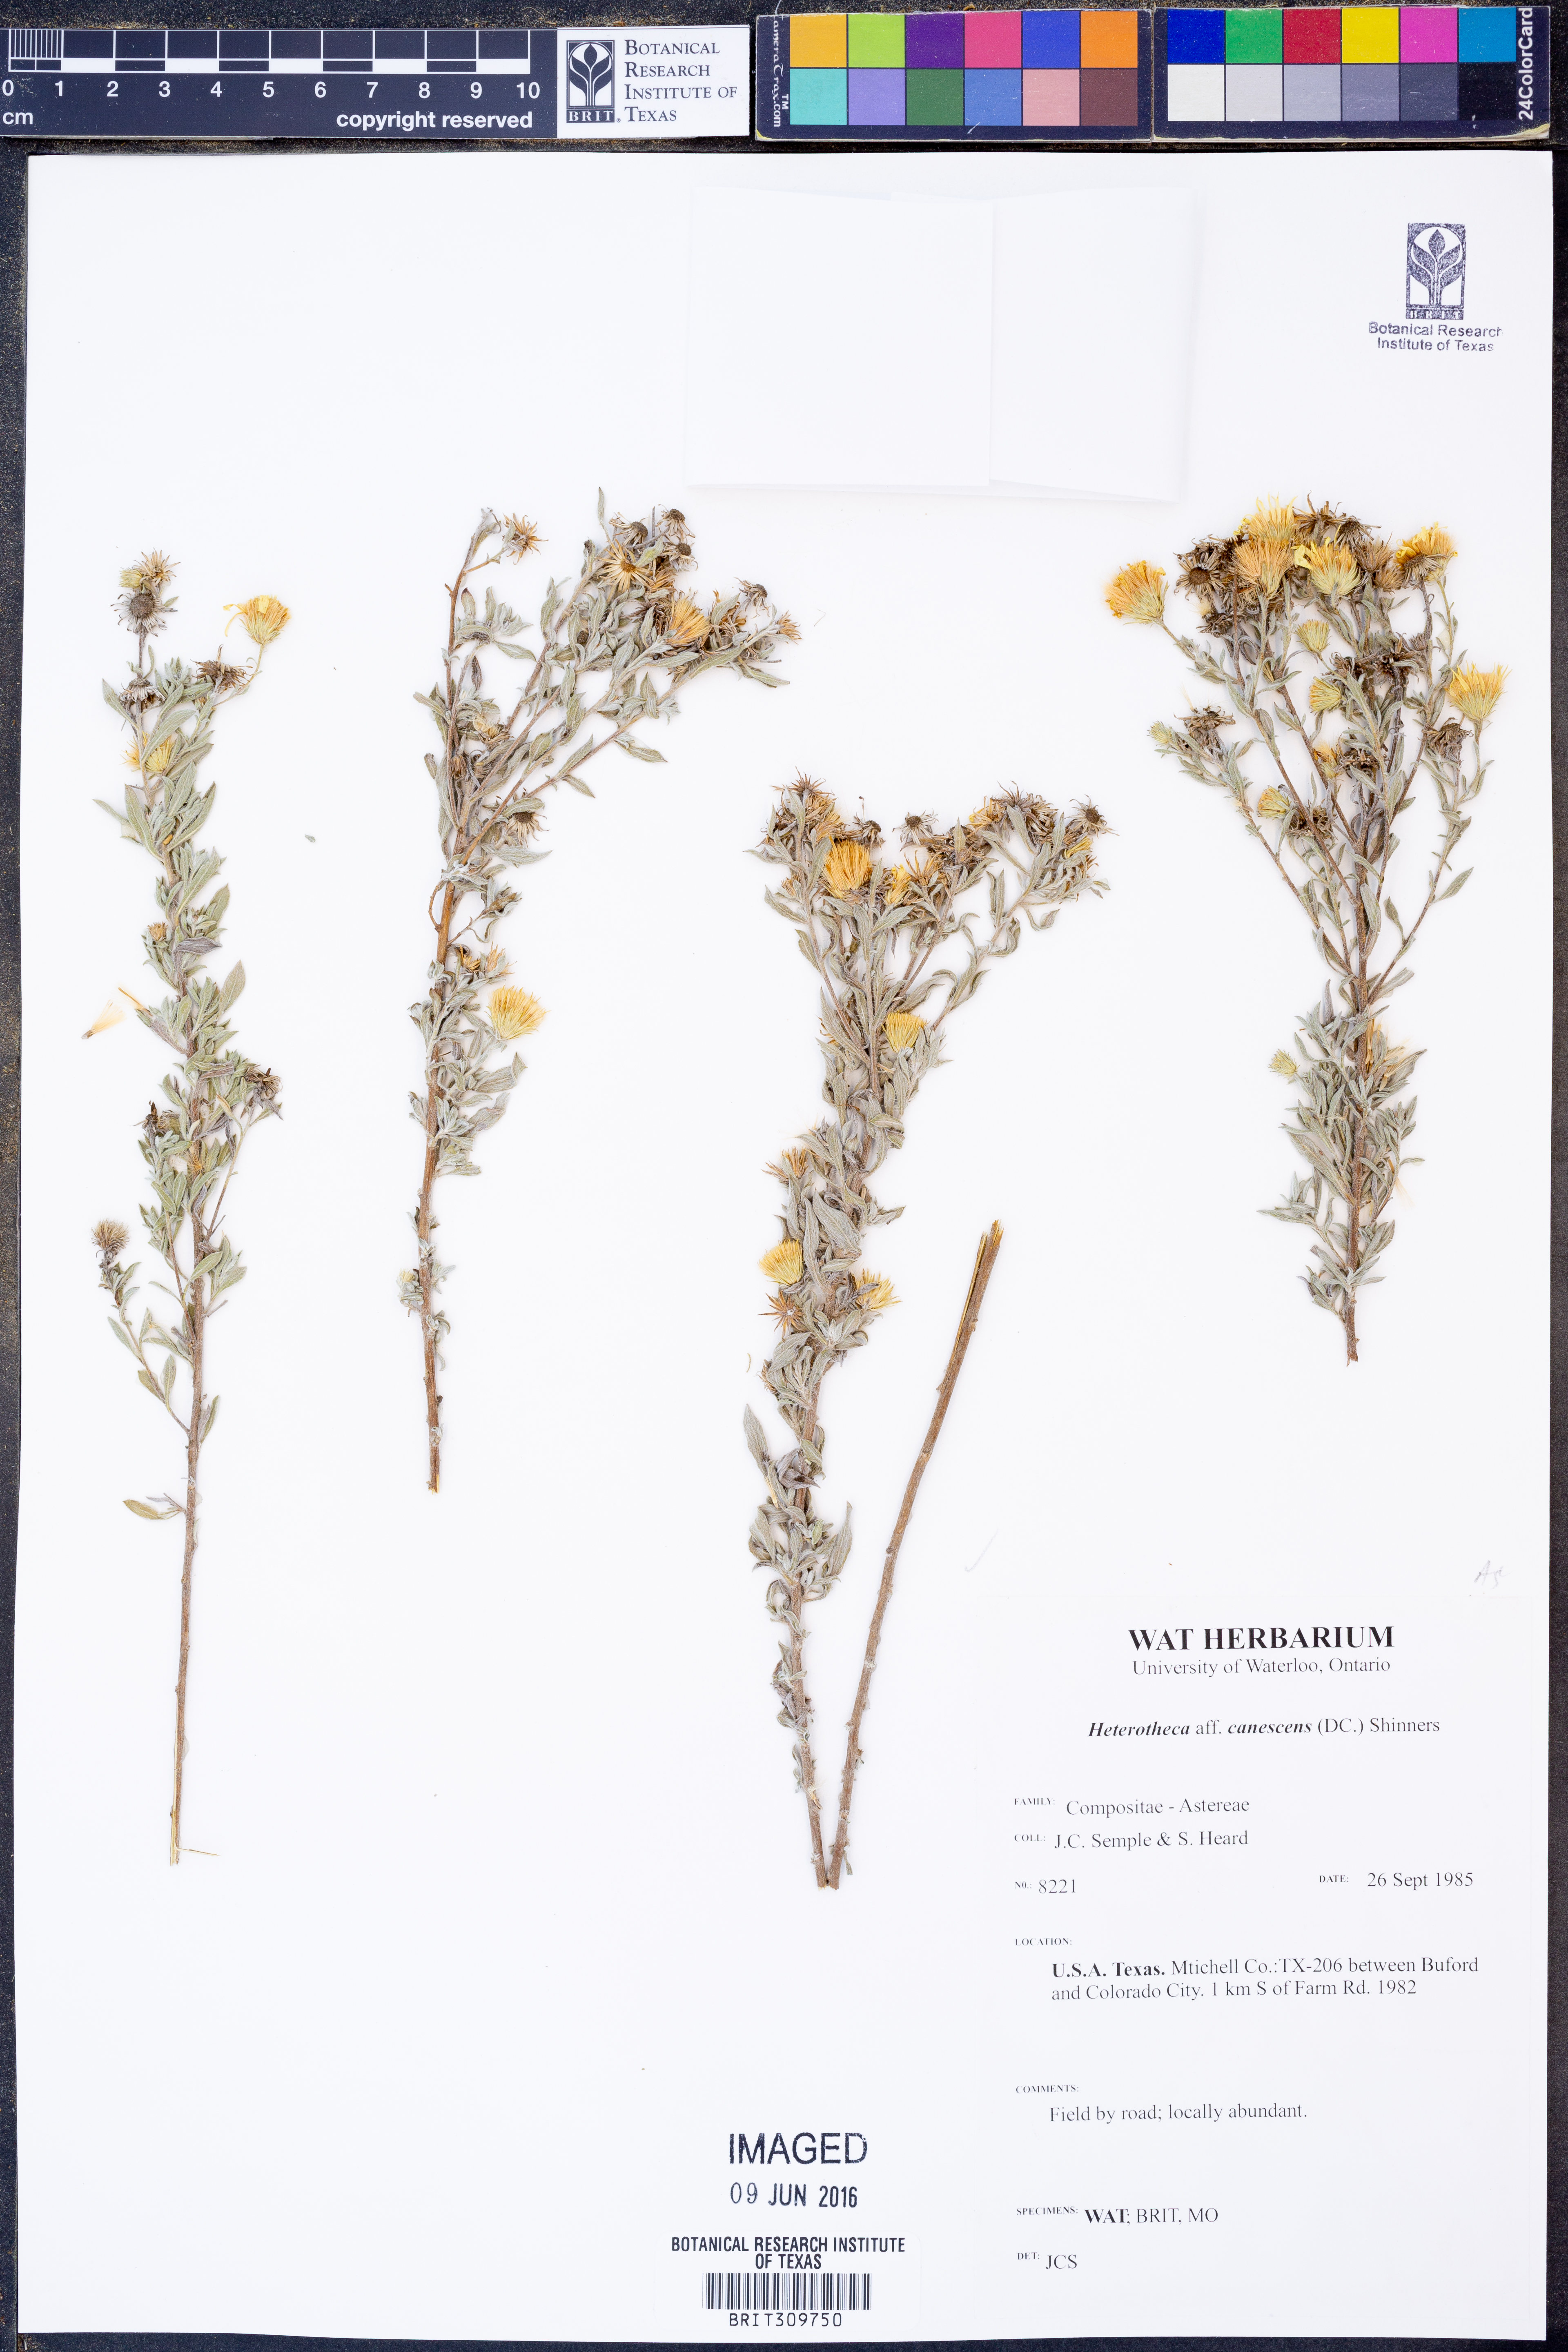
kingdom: Plantae
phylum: Tracheophyta
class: Magnoliopsida
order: Asterales
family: Asteraceae
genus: Heterotheca
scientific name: Heterotheca canescens
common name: Hoary golden-aster
